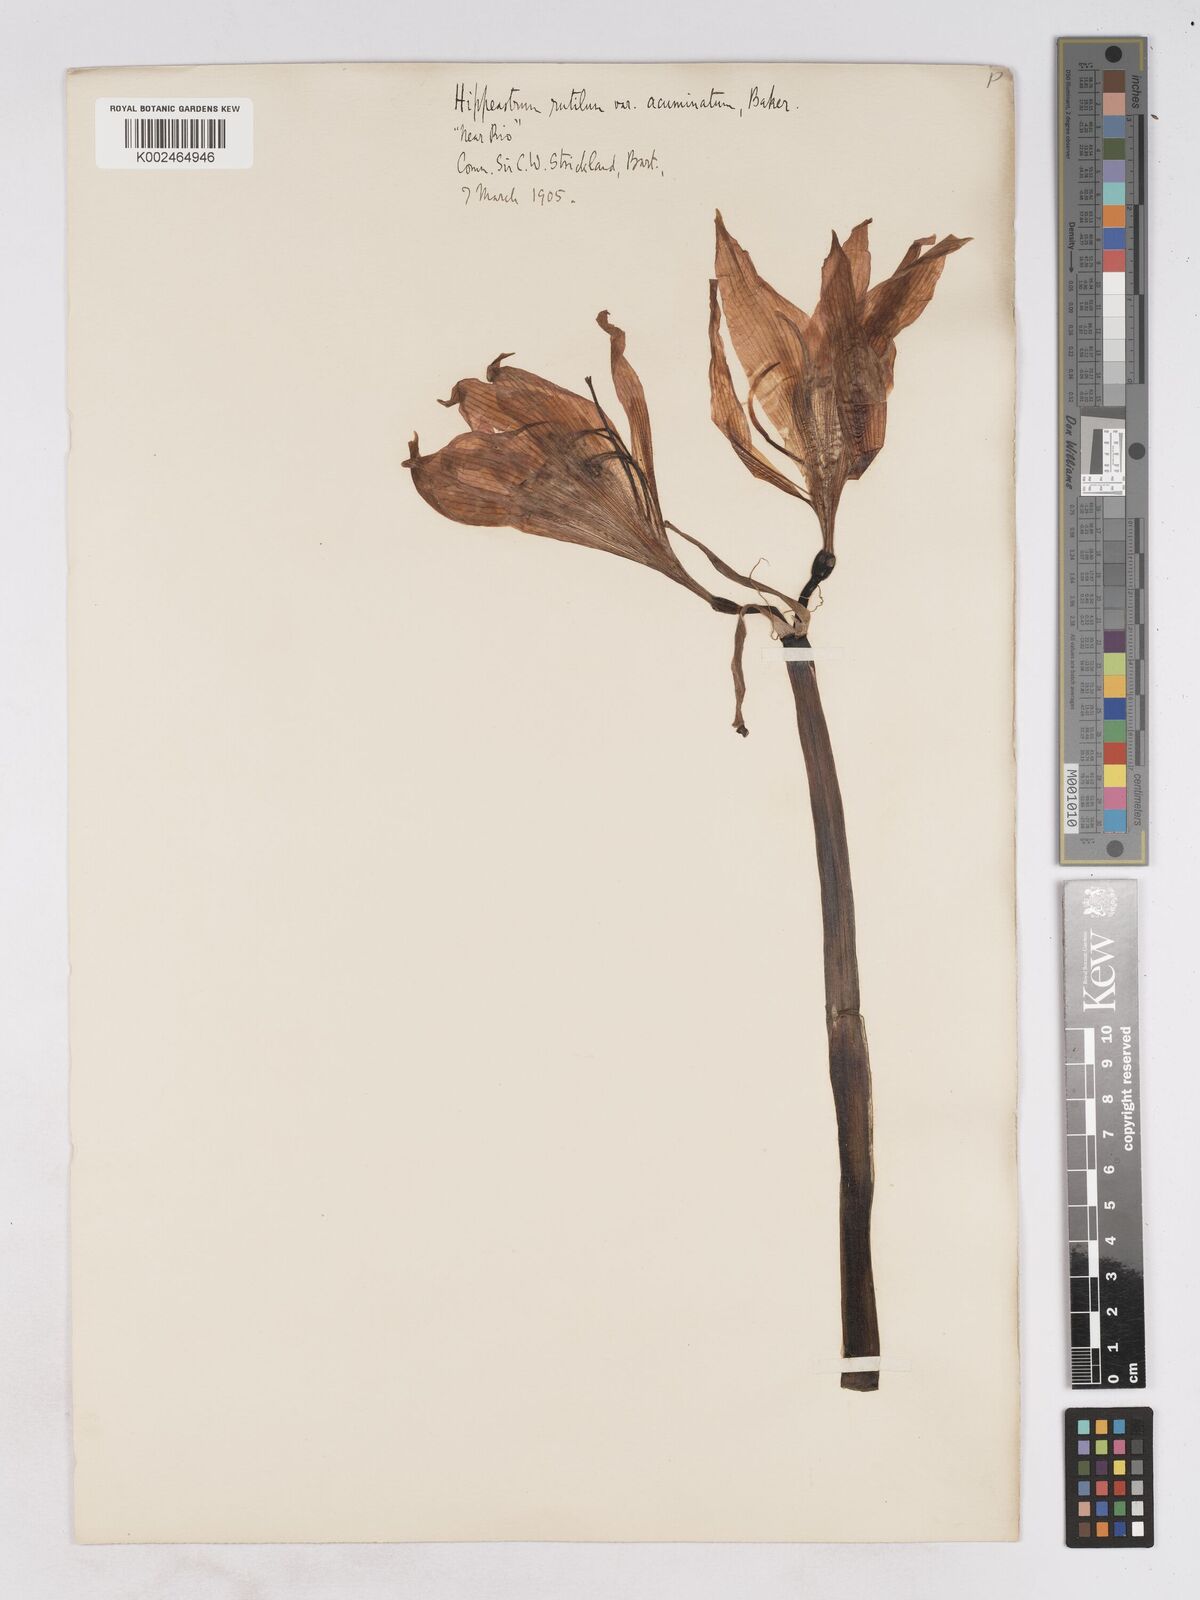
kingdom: Plantae
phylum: Tracheophyta
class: Liliopsida
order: Asparagales
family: Amaryllidaceae
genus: Hippeastrum
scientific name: Hippeastrum striatum
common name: Striped barbados lily
